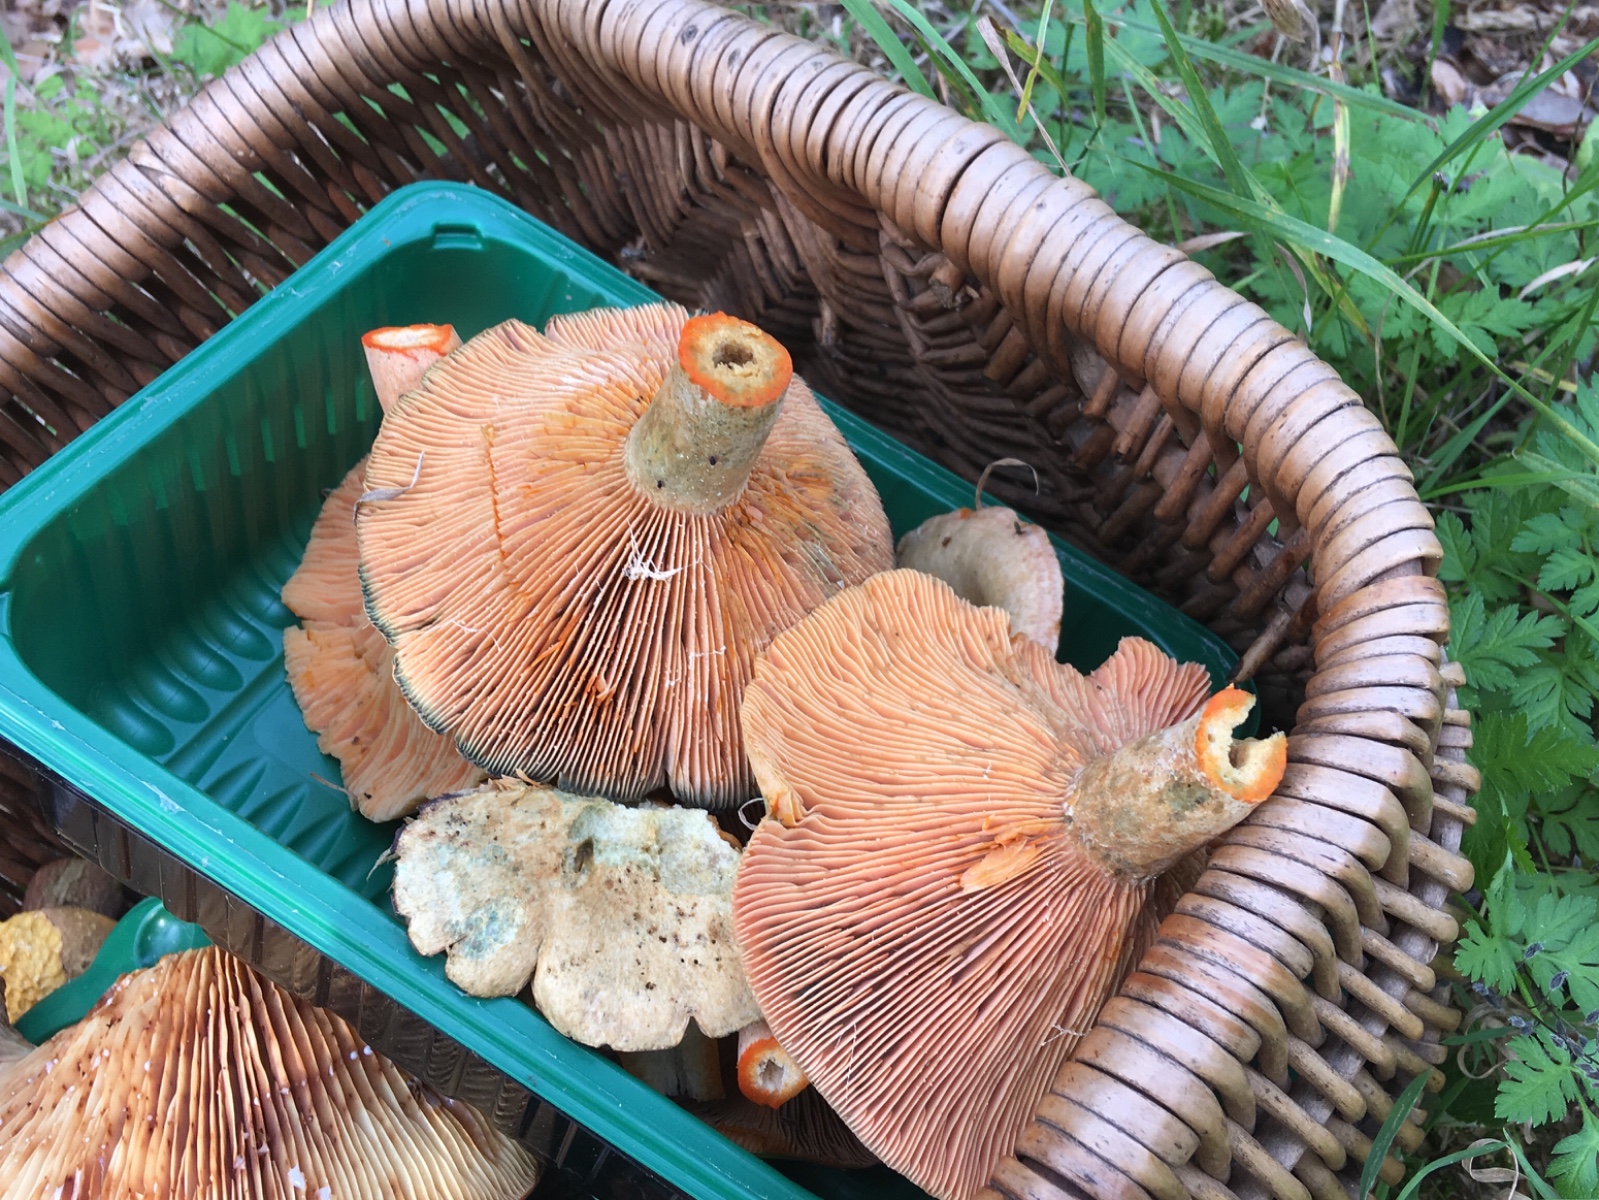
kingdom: Fungi
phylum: Basidiomycota
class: Agaricomycetes
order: Russulales
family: Russulaceae
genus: Lactarius
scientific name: Lactarius deterrimus
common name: gran-mælkehat
